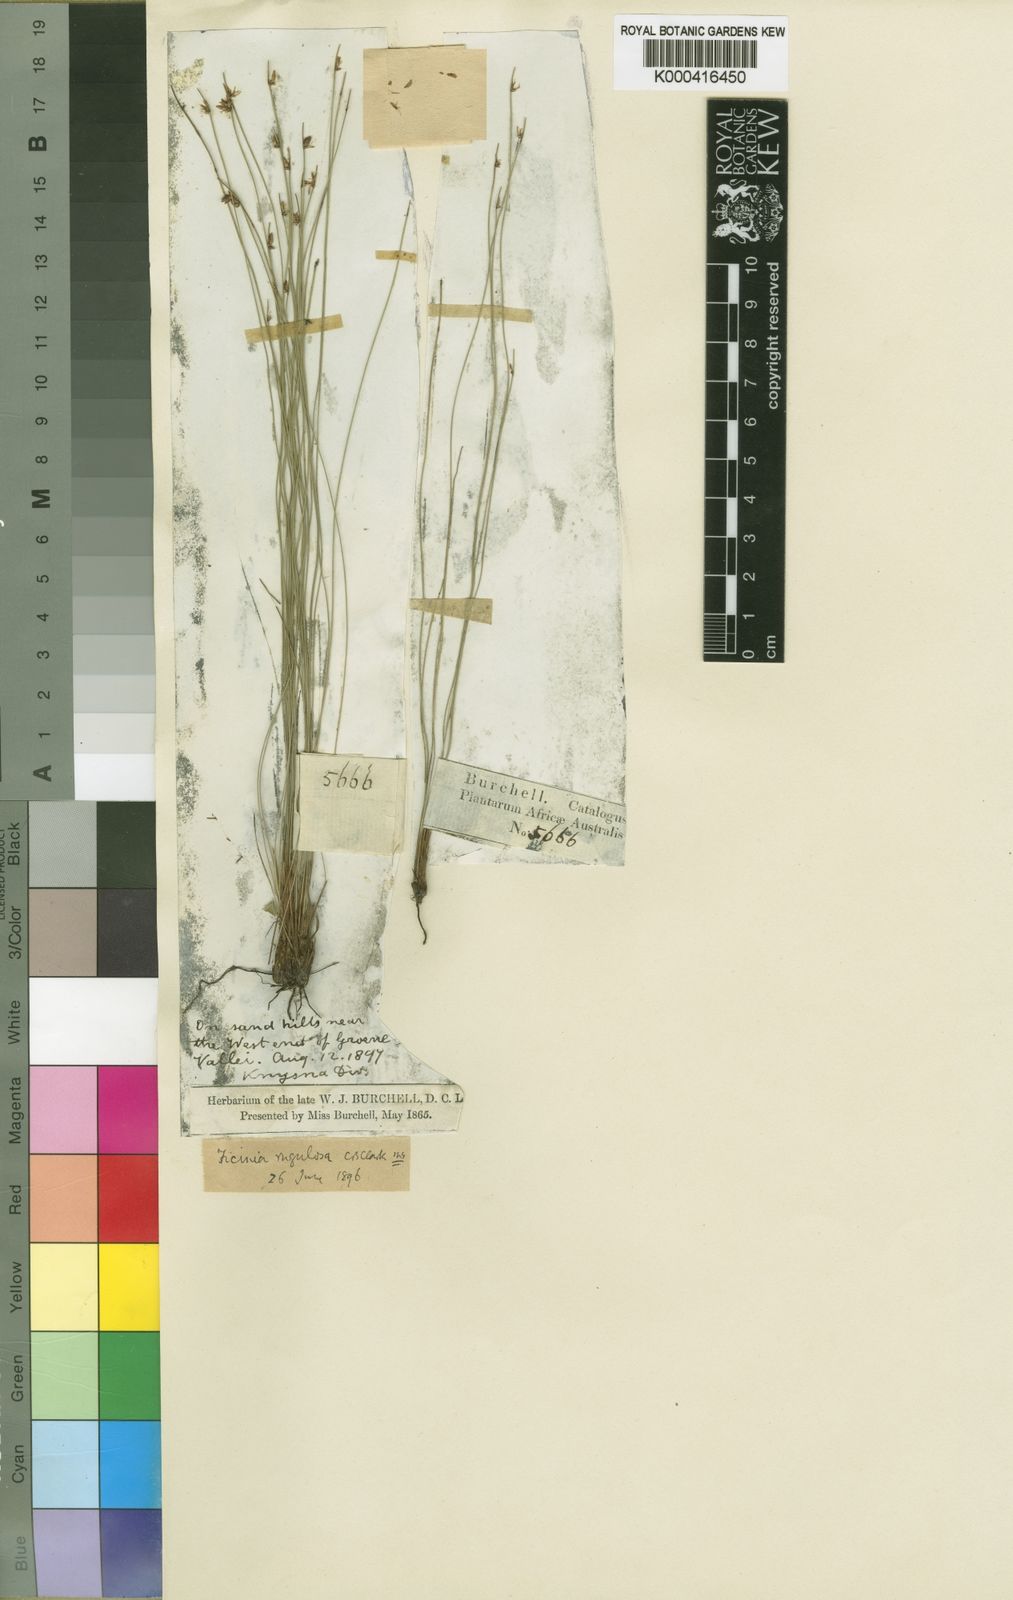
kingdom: Plantae
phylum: Tracheophyta
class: Liliopsida
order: Poales
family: Cyperaceae
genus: Ficinia
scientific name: Ficinia filiformis
